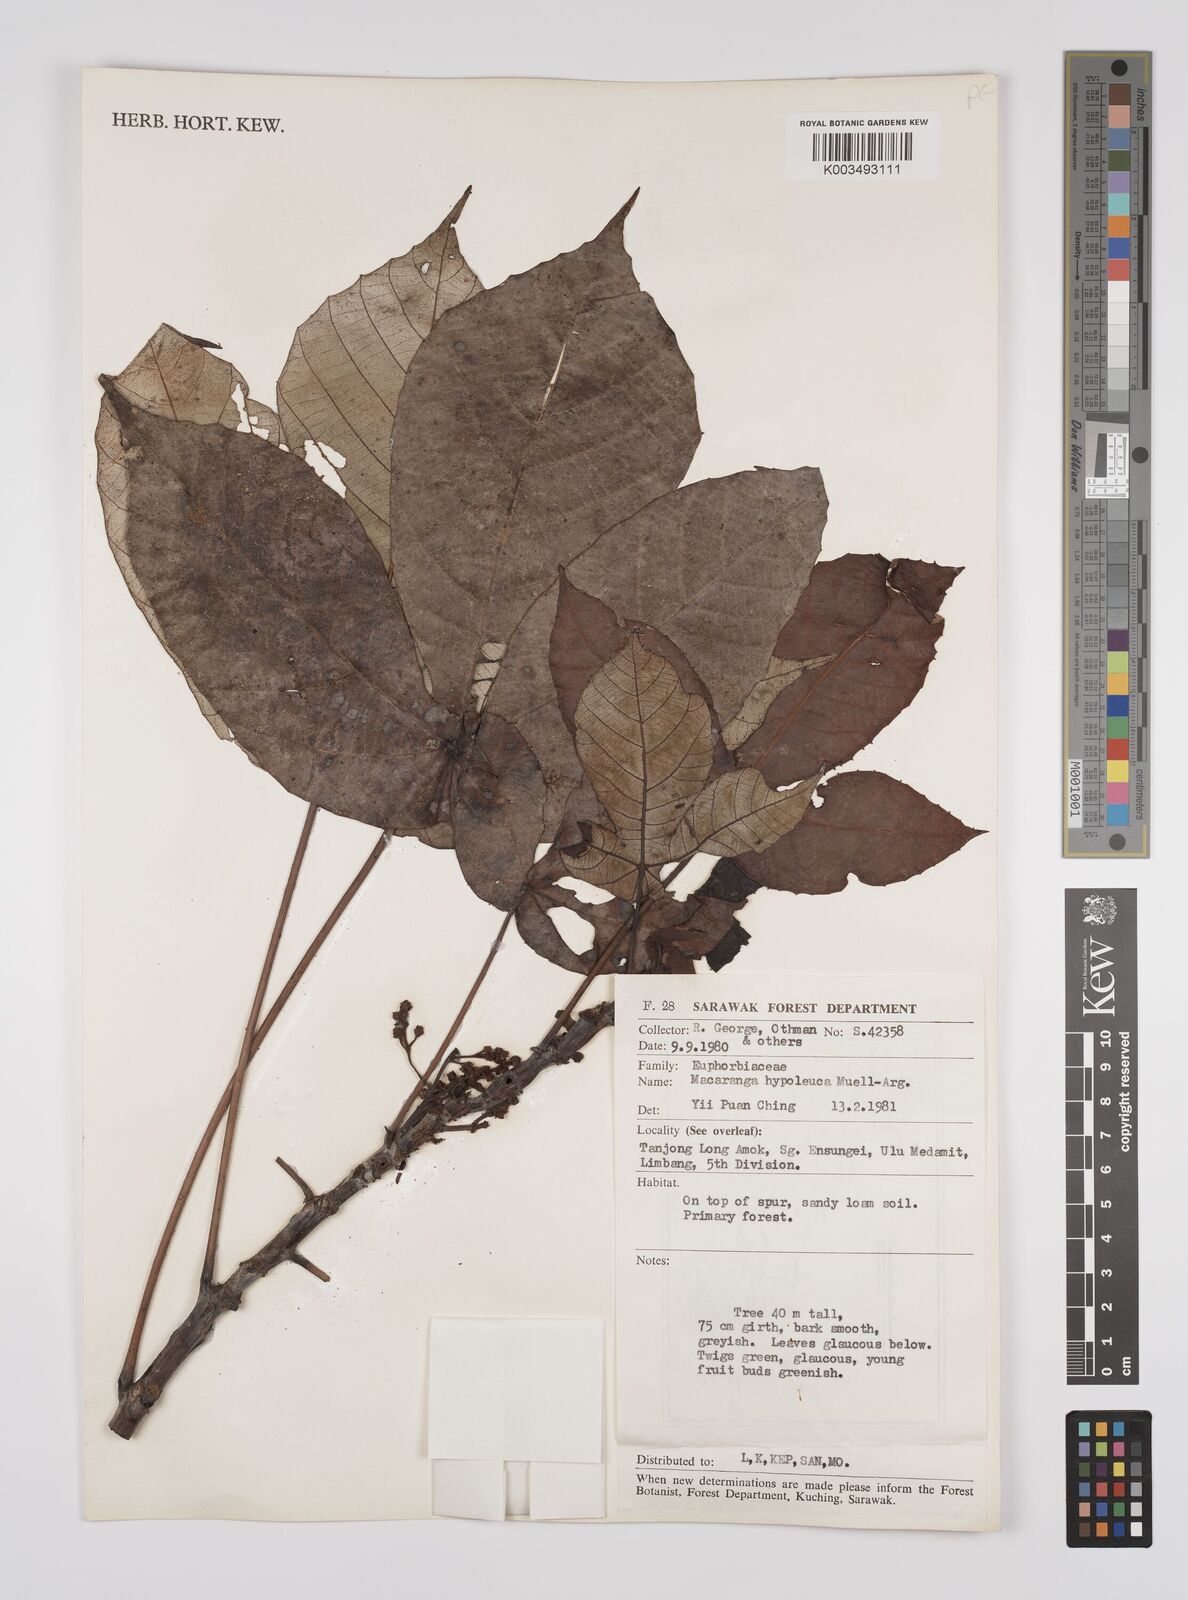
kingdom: Plantae
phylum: Tracheophyta
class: Magnoliopsida
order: Malpighiales
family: Euphorbiaceae
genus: Macaranga
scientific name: Macaranga hypoleuca
